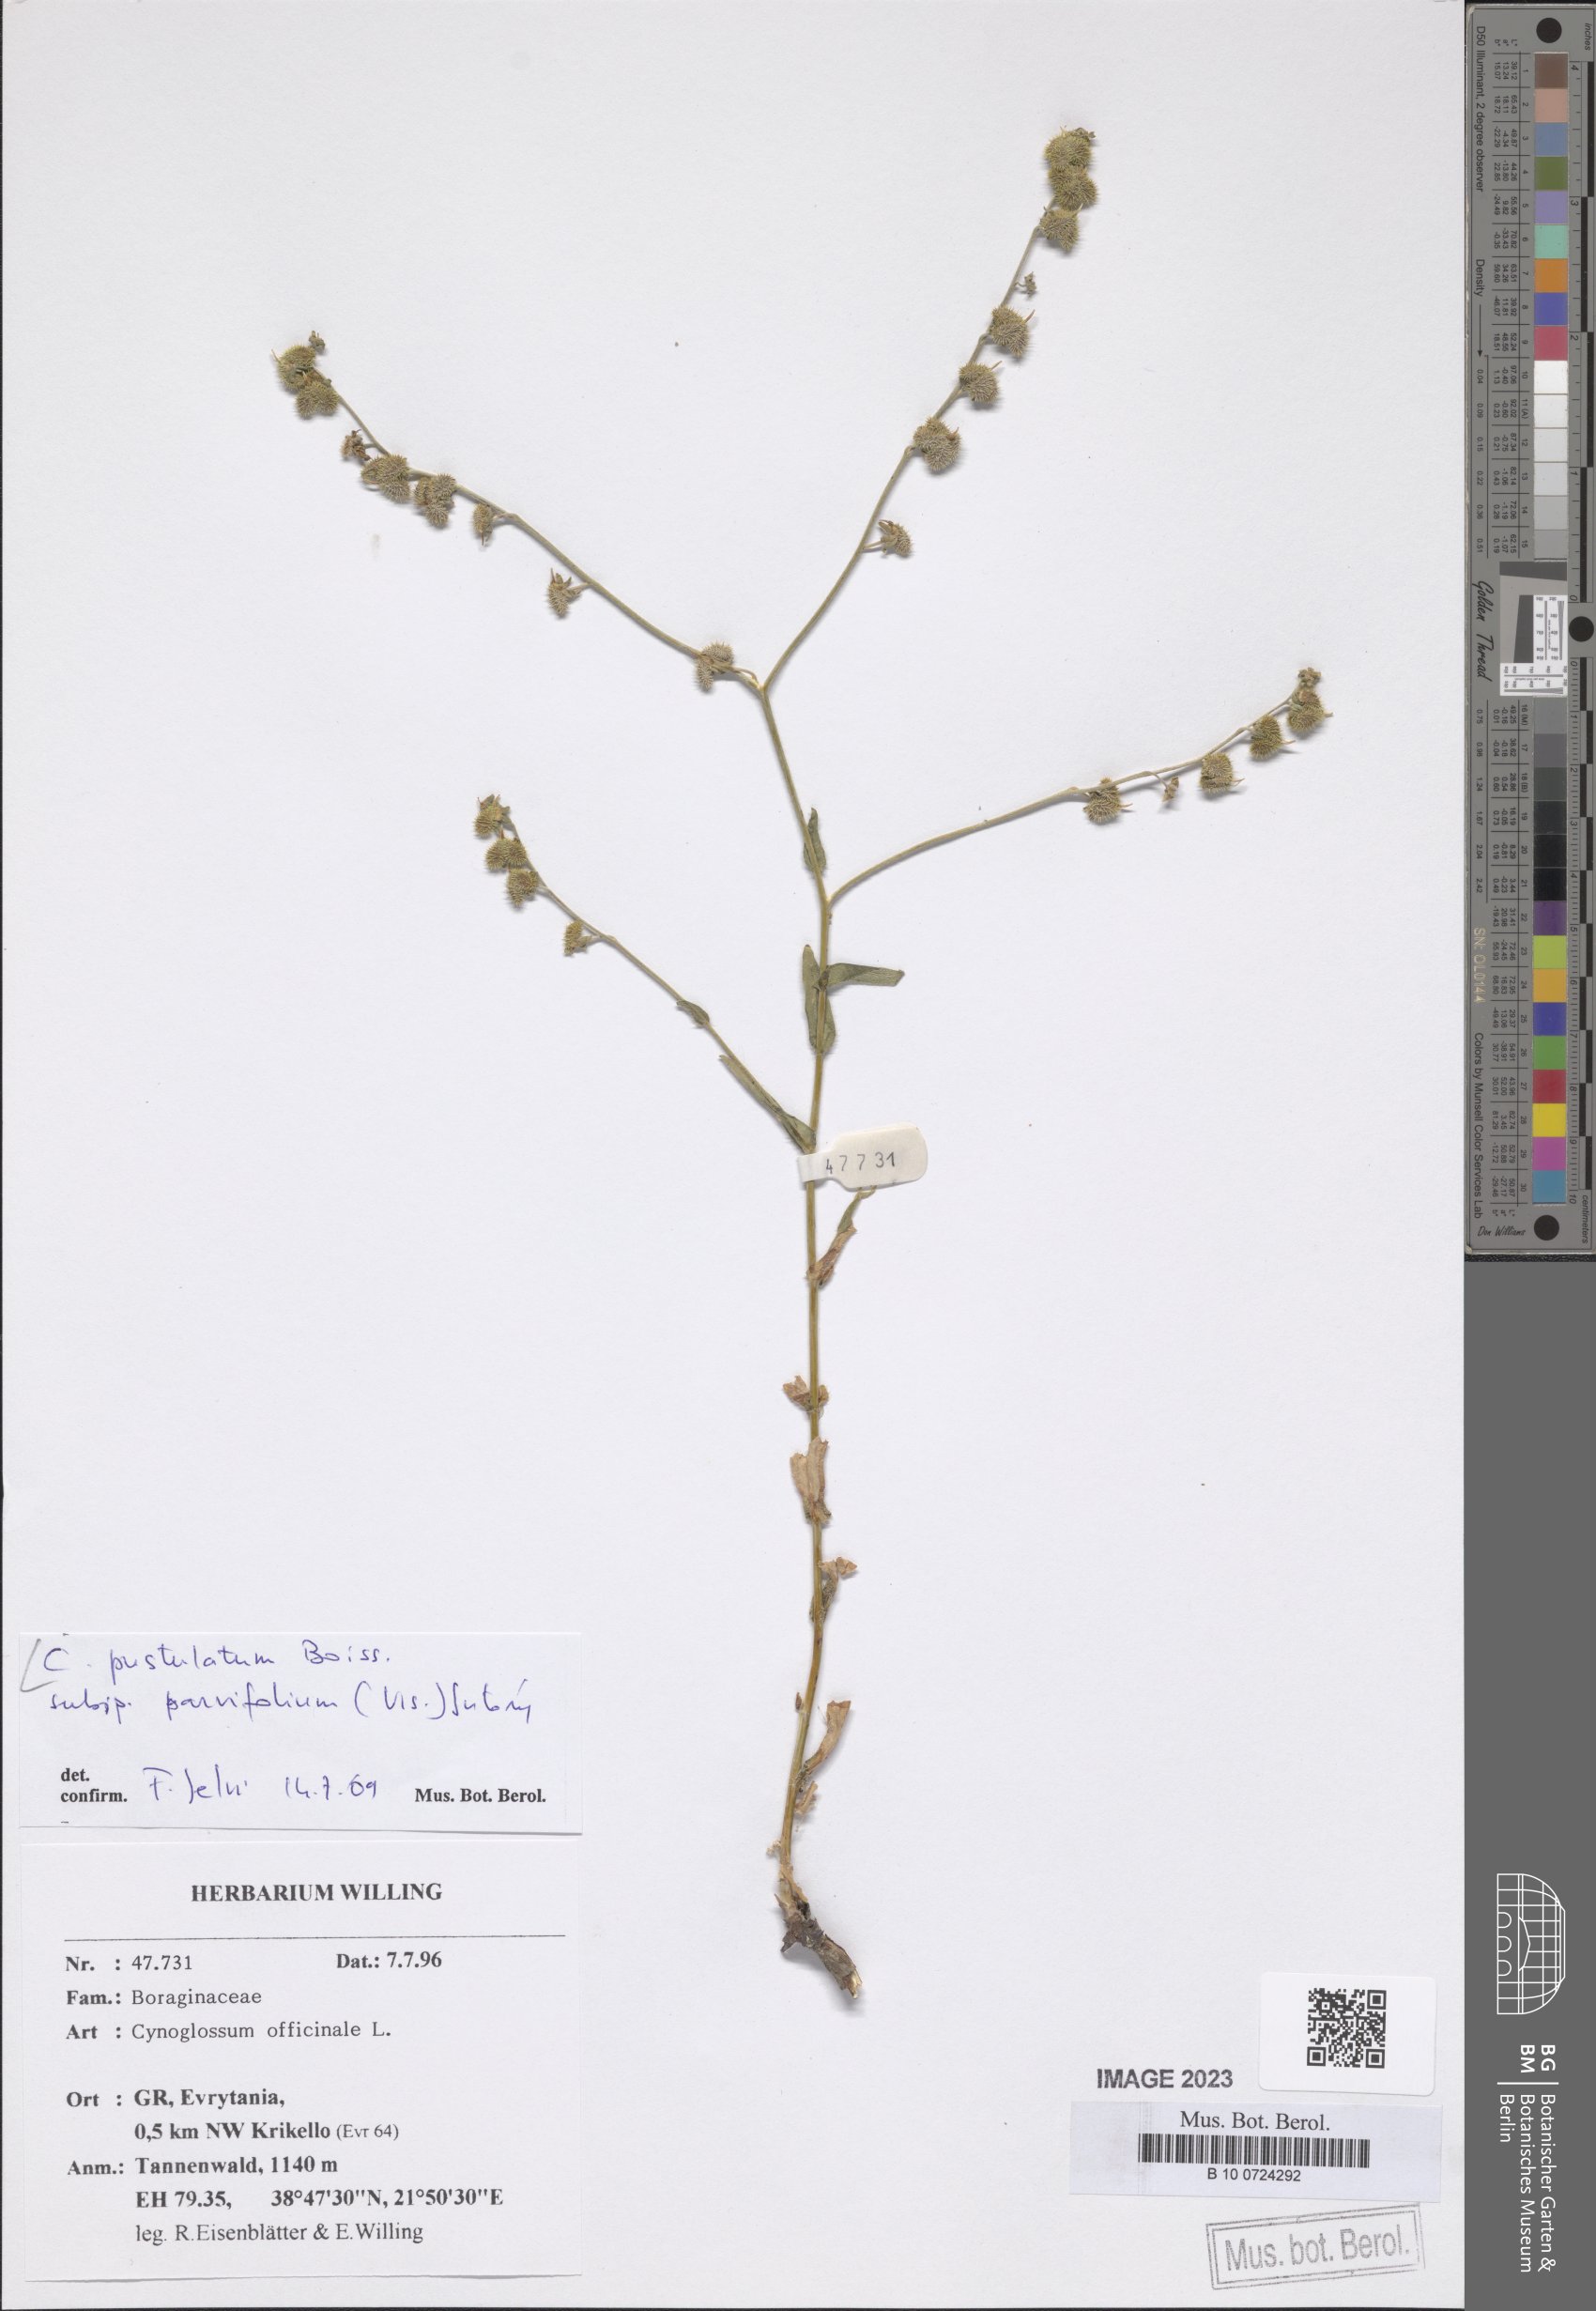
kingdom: Plantae
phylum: Tracheophyta
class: Magnoliopsida
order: Boraginales
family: Boraginaceae
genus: Cynoglossum
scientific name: Cynoglossum pustulatum
